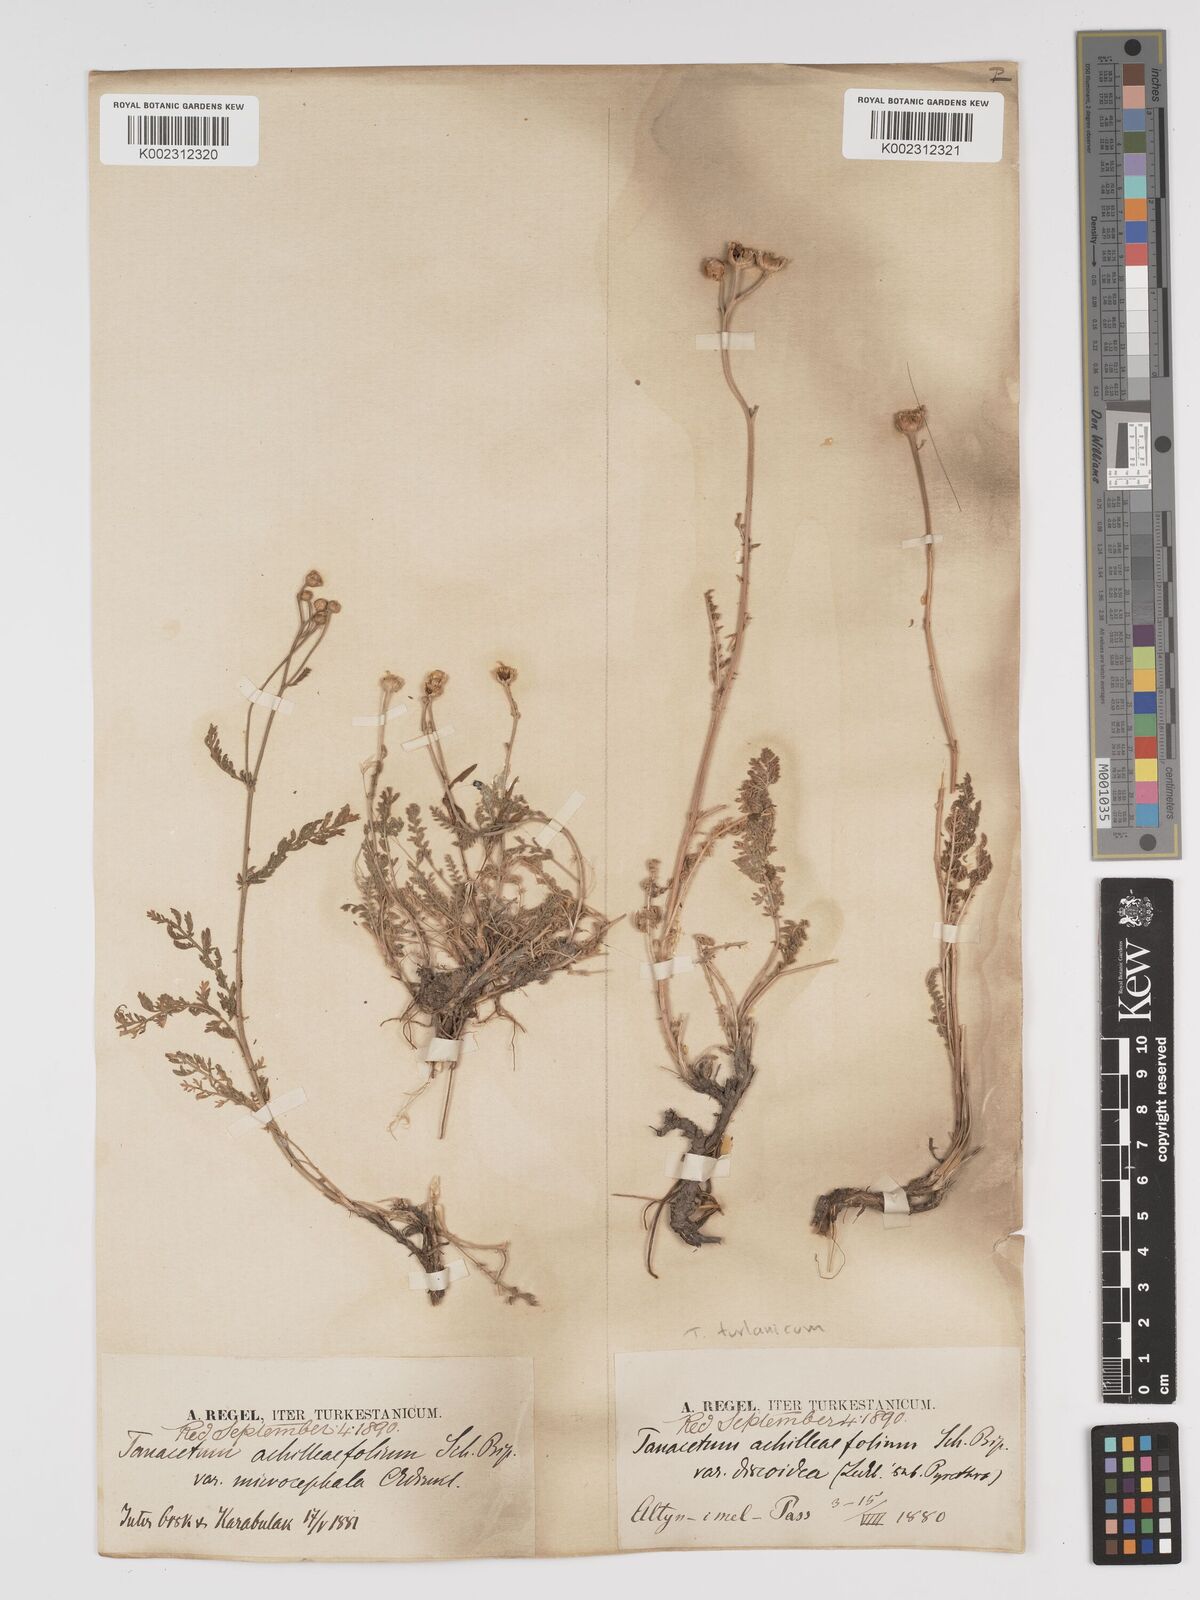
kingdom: Plantae
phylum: Tracheophyta
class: Magnoliopsida
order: Asterales
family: Asteraceae
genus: Tanacetum
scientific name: Tanacetum achilleifolium
